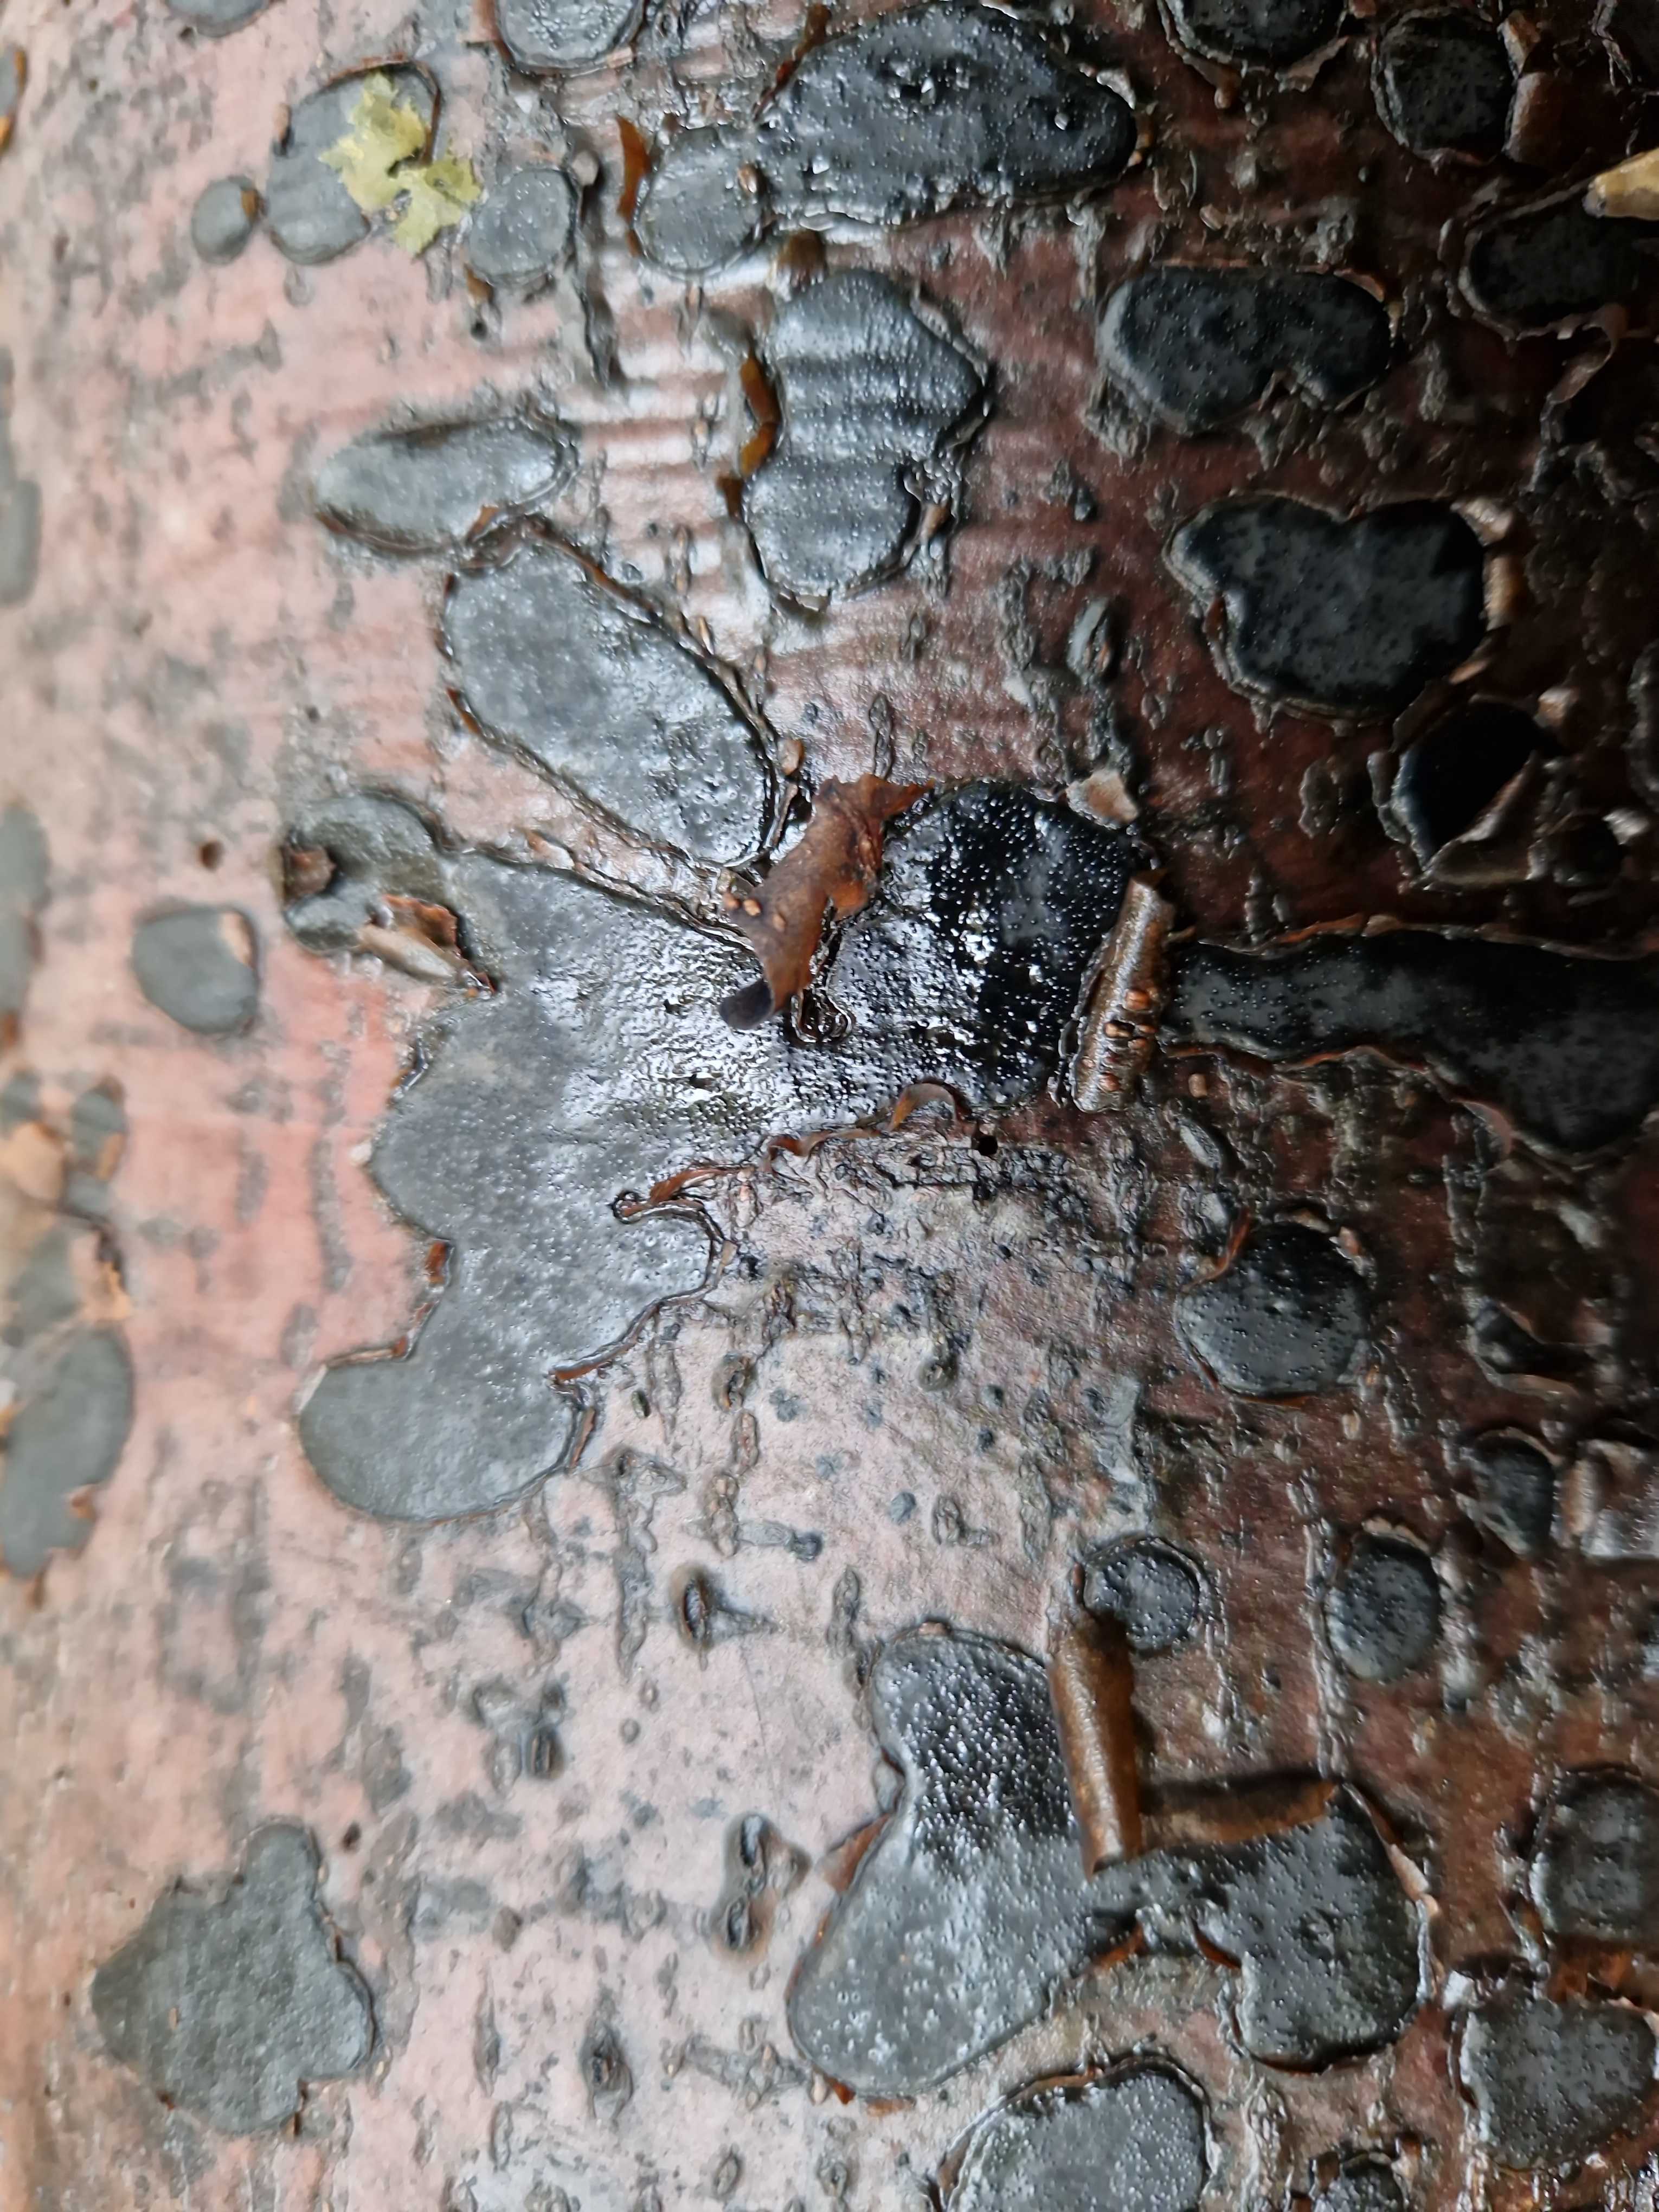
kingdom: Fungi
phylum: Ascomycota
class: Sordariomycetes
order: Xylariales
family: Graphostromataceae
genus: Biscogniauxia
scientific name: Biscogniauxia nummularia
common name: bøge-kulskive
